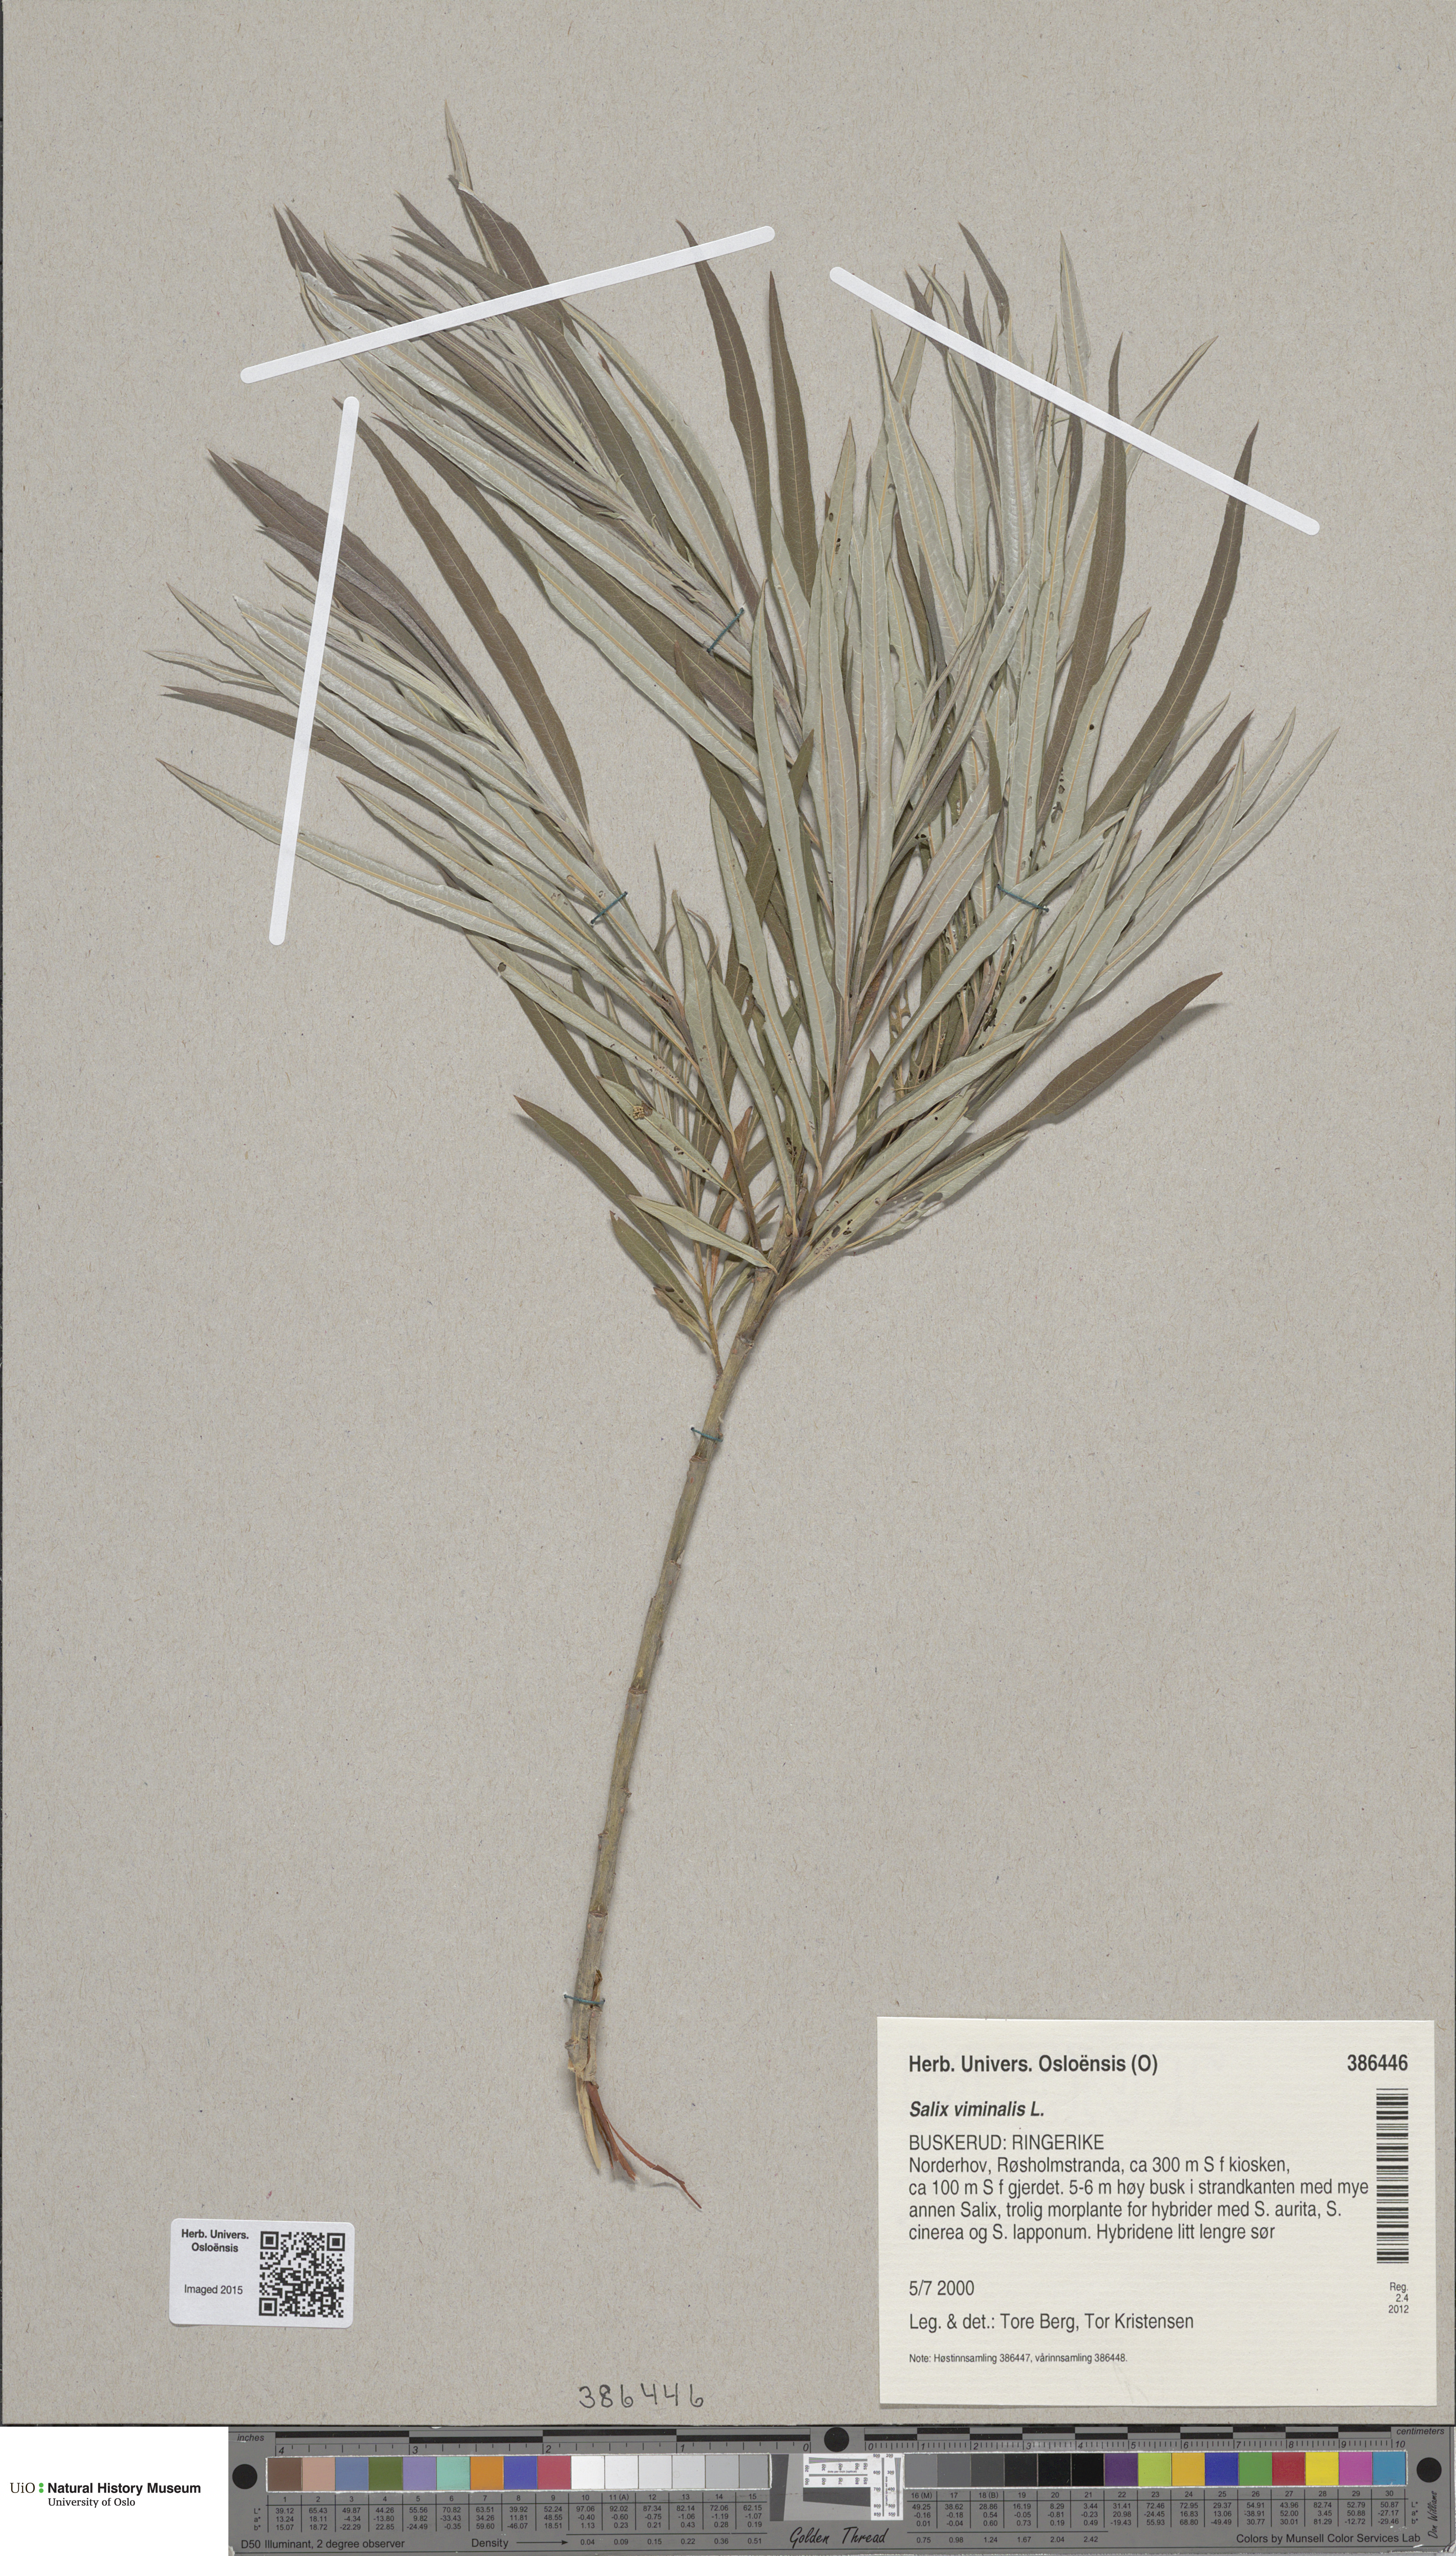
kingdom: Plantae
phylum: Tracheophyta
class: Magnoliopsida
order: Malpighiales
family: Salicaceae
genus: Salix
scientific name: Salix viminalis
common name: Osier
